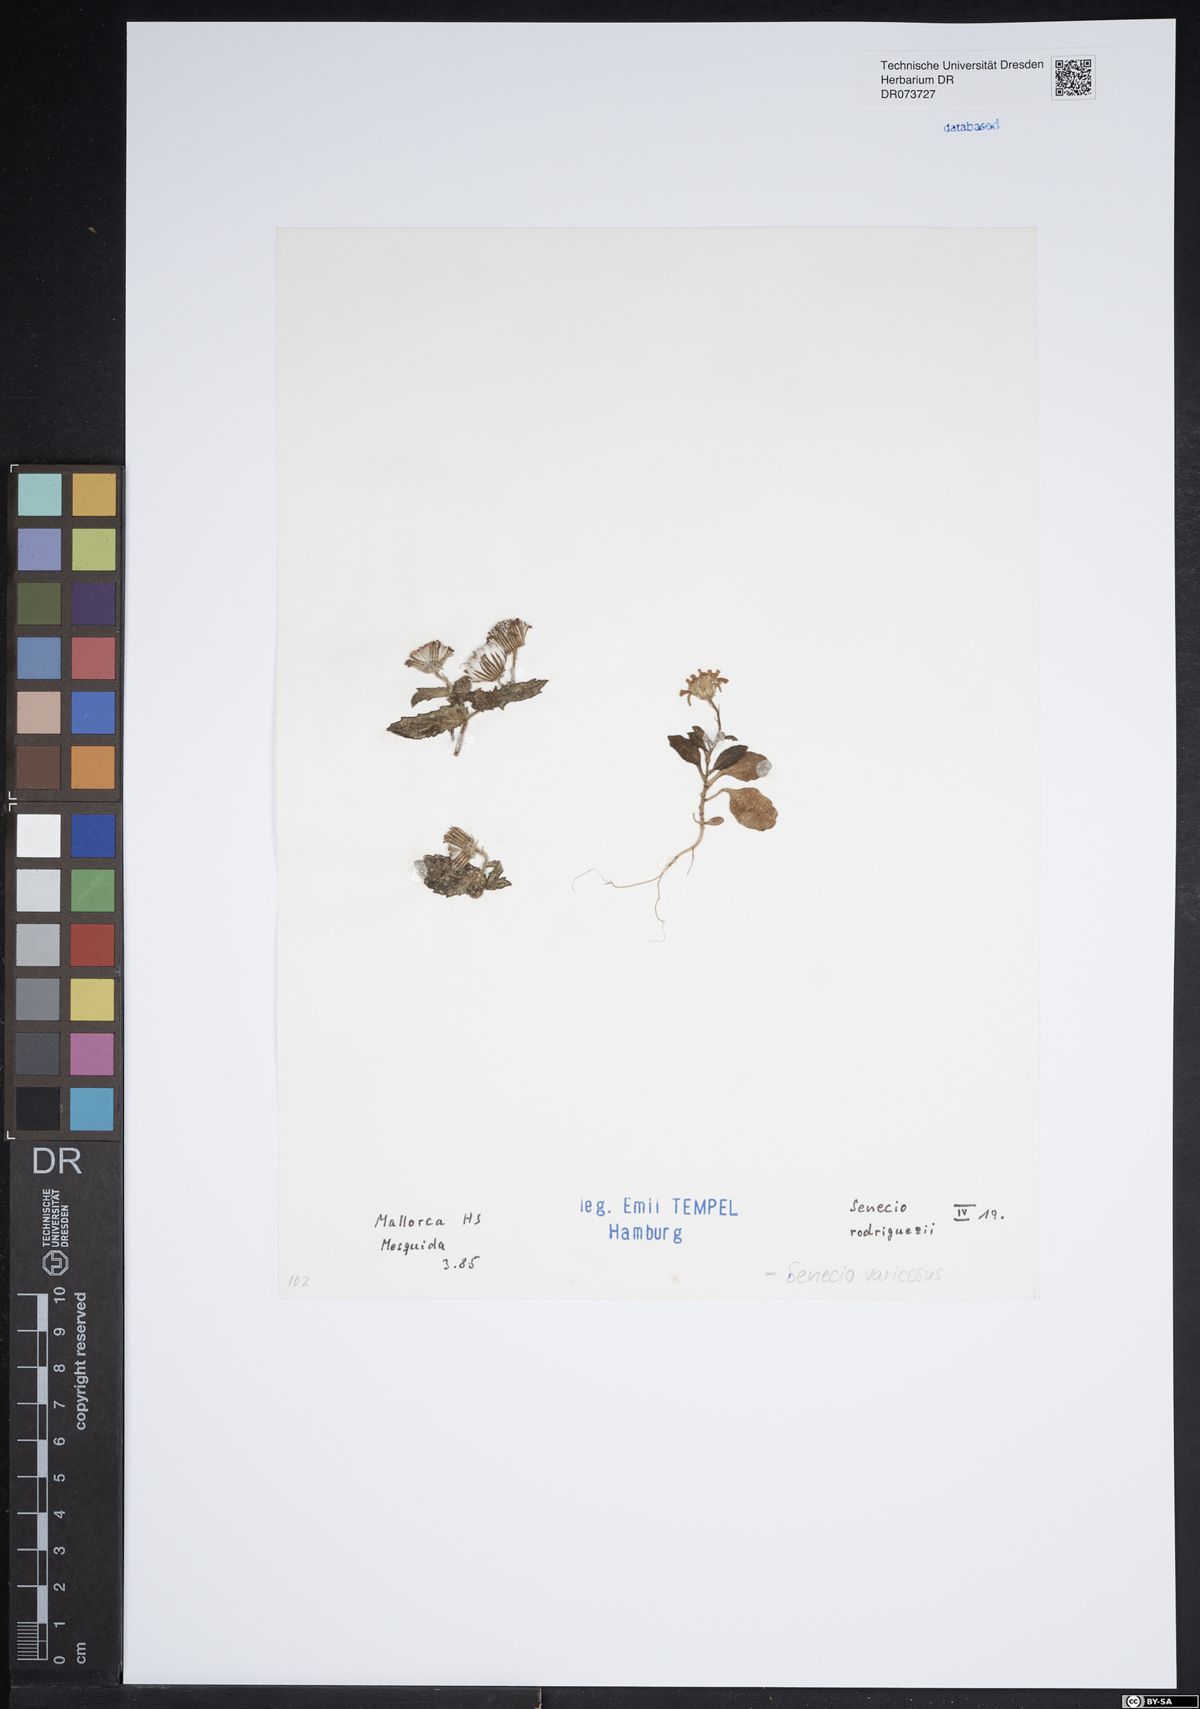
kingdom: Plantae
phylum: Tracheophyta
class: Magnoliopsida
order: Asterales
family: Asteraceae
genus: Senecio
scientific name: Senecio varicosus
